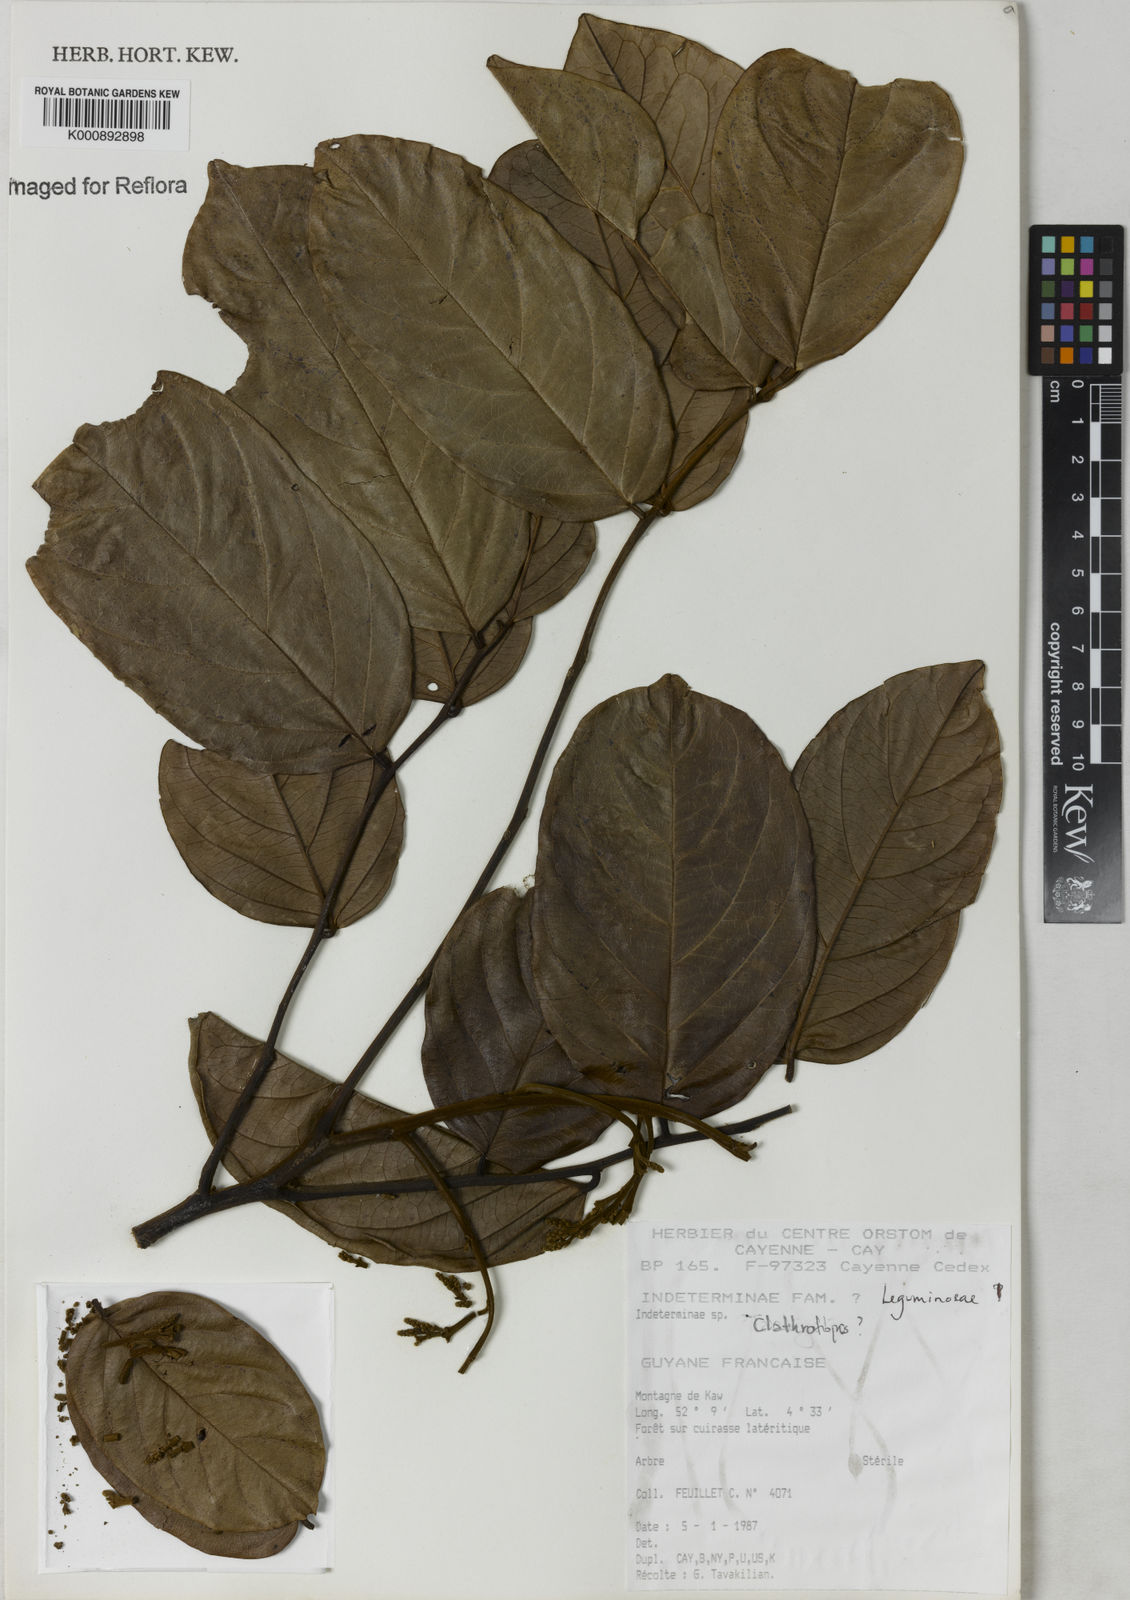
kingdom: Plantae
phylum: Tracheophyta
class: Magnoliopsida
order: Fabales
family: Fabaceae
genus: Clathrotropis
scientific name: Clathrotropis
